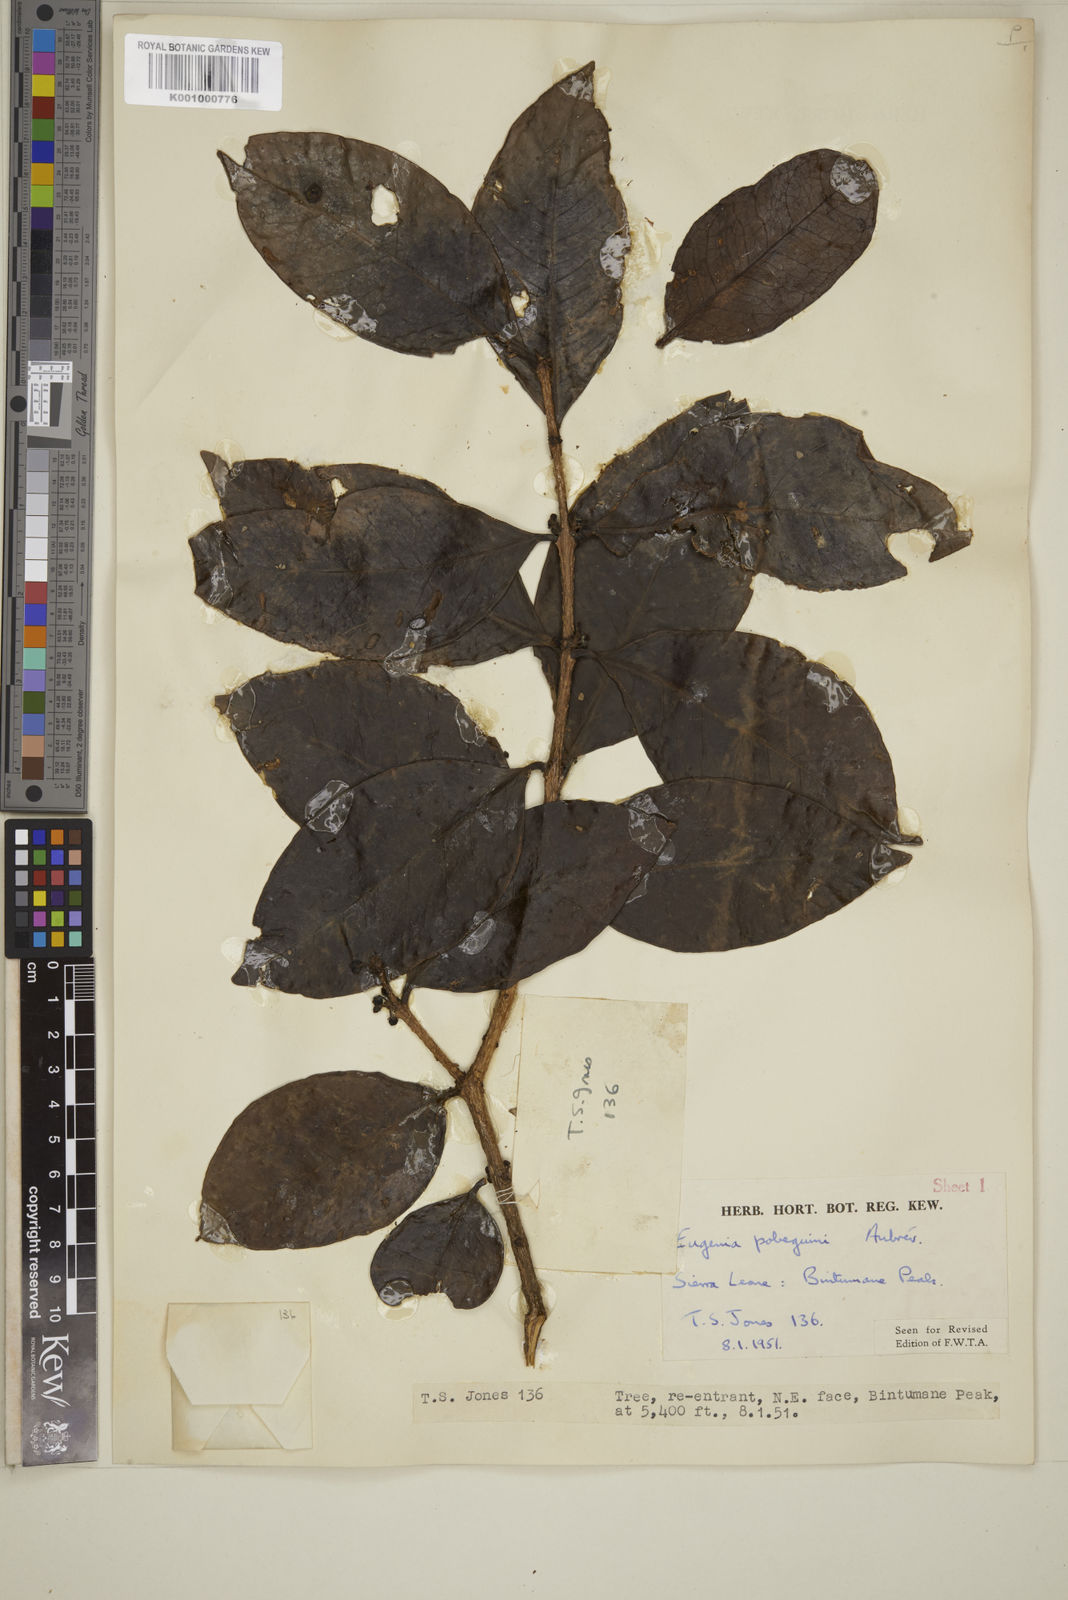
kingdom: Plantae
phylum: Tracheophyta
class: Magnoliopsida
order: Myrtales
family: Myrtaceae
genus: Eugenia
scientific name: Eugenia
